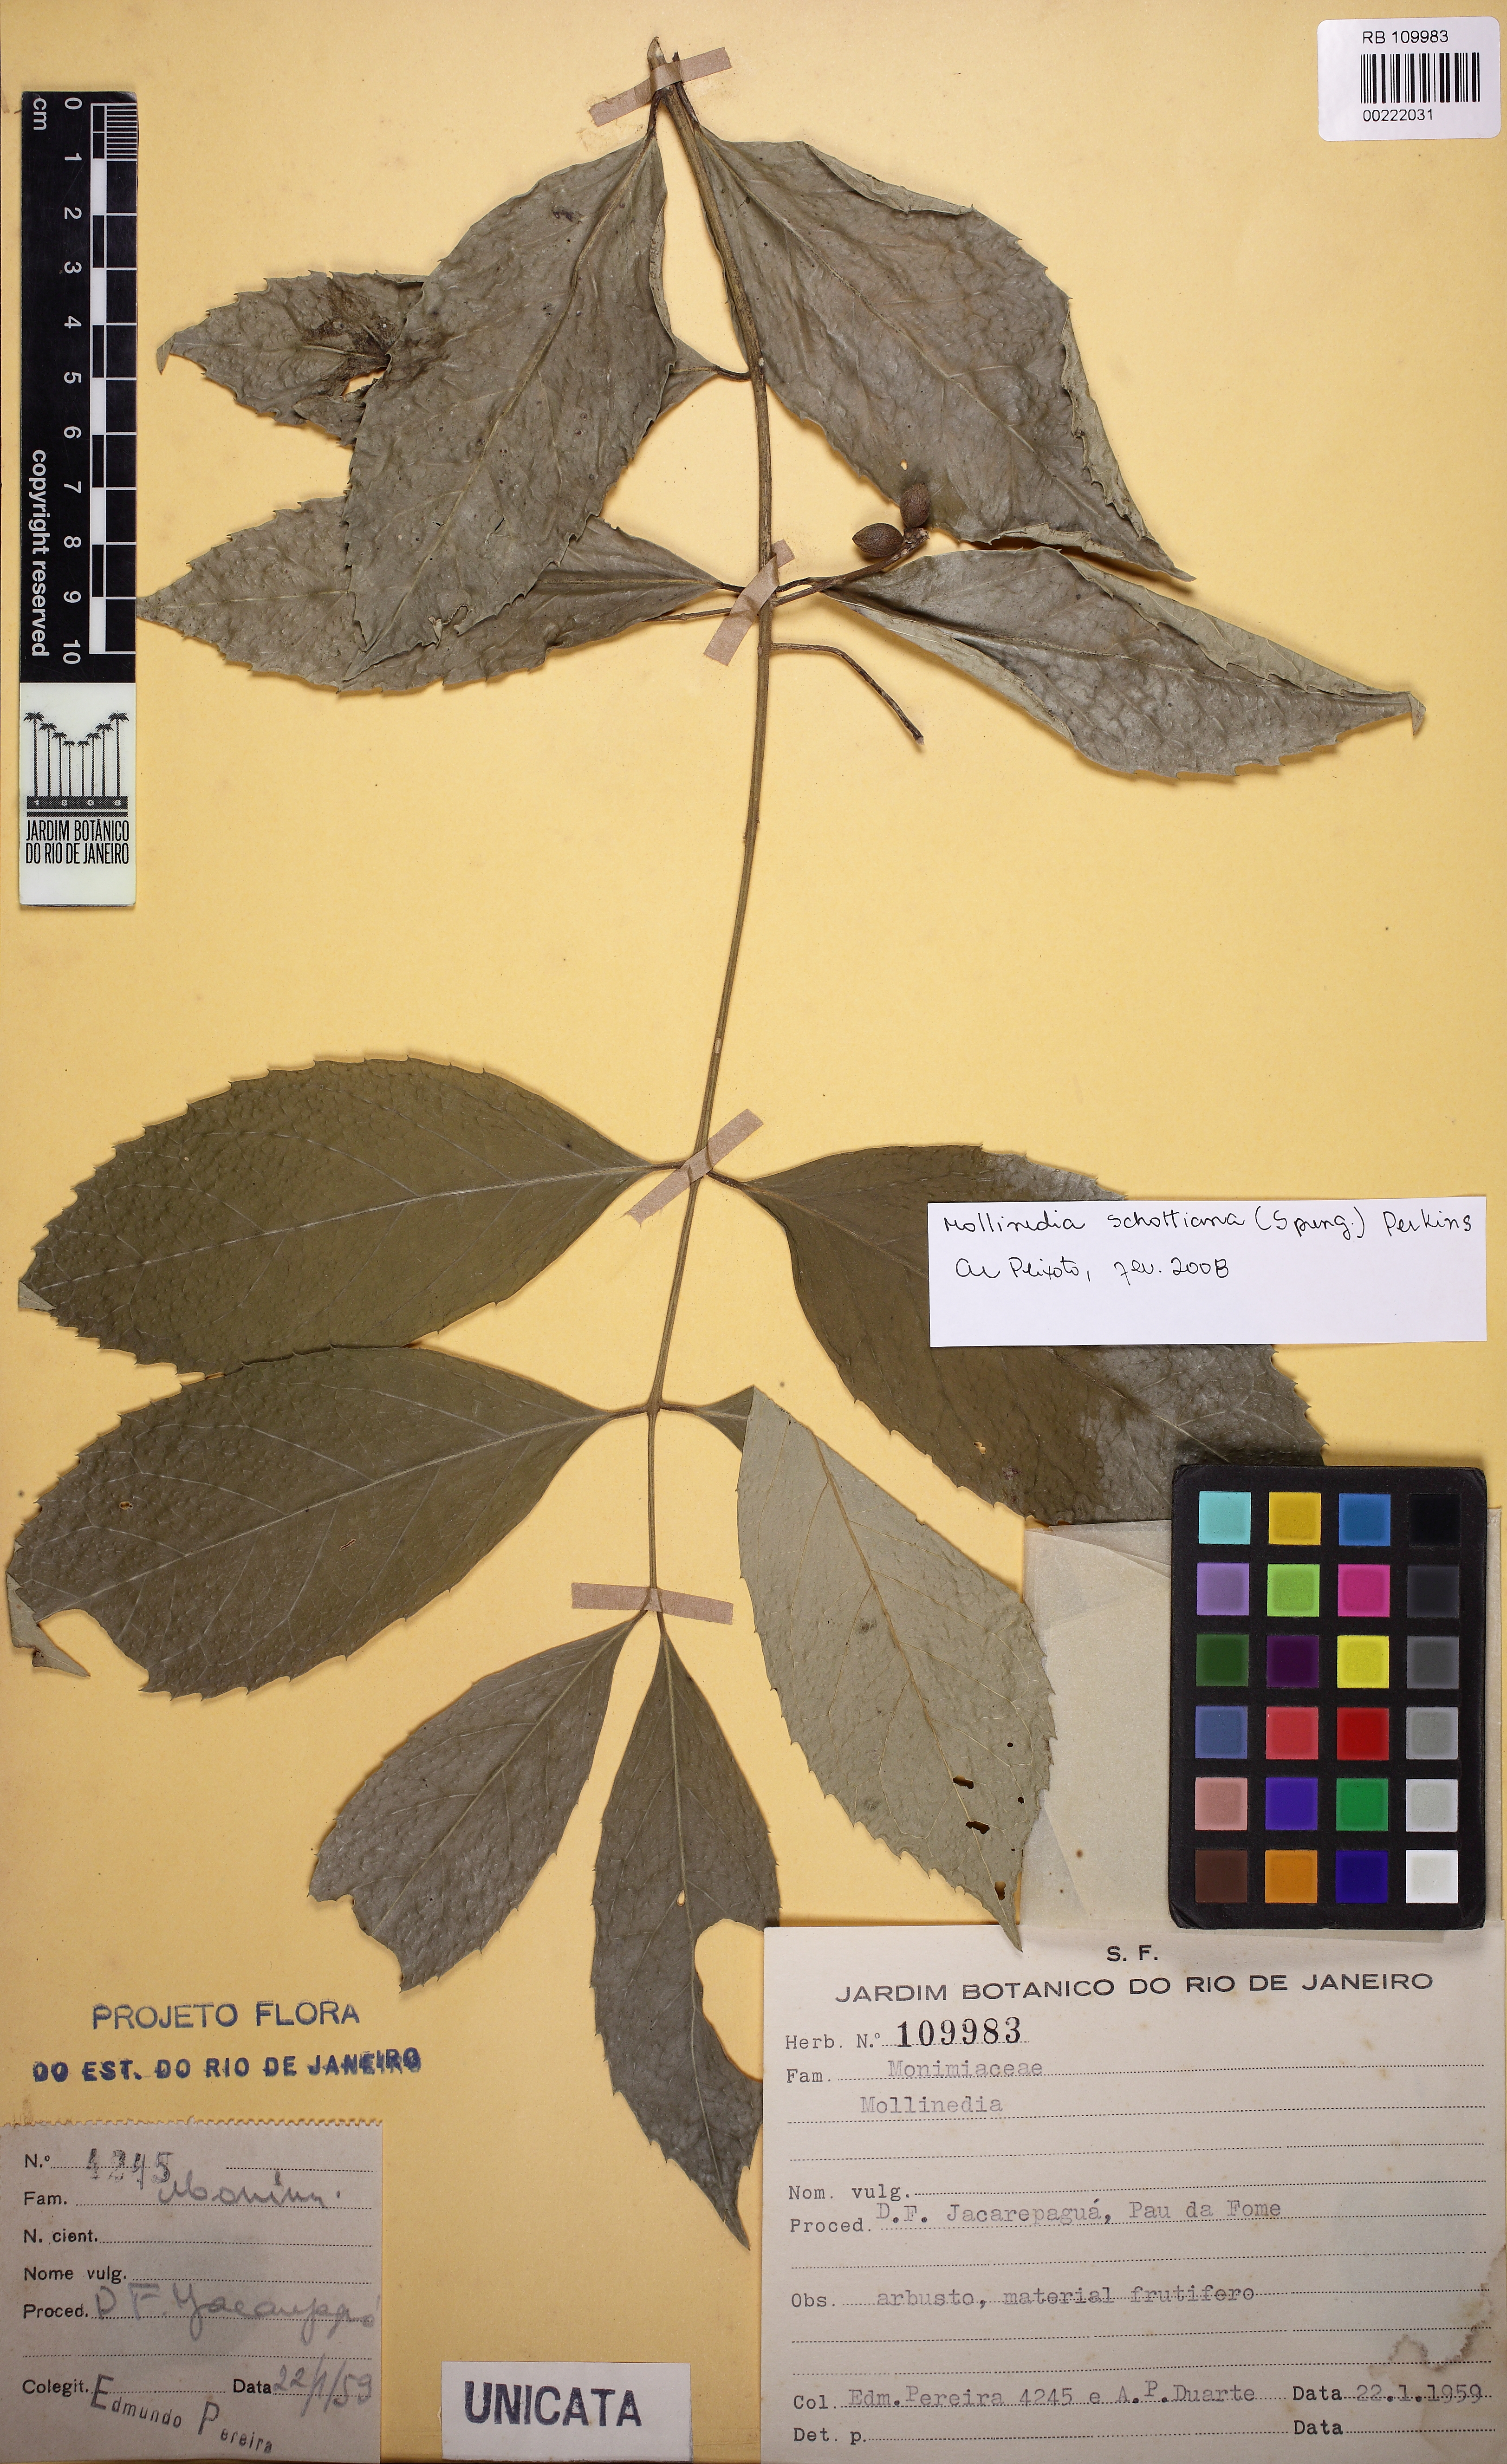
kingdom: Plantae
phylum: Tracheophyta
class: Magnoliopsida
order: Laurales
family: Monimiaceae
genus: Mollinedia
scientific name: Mollinedia umbellata
